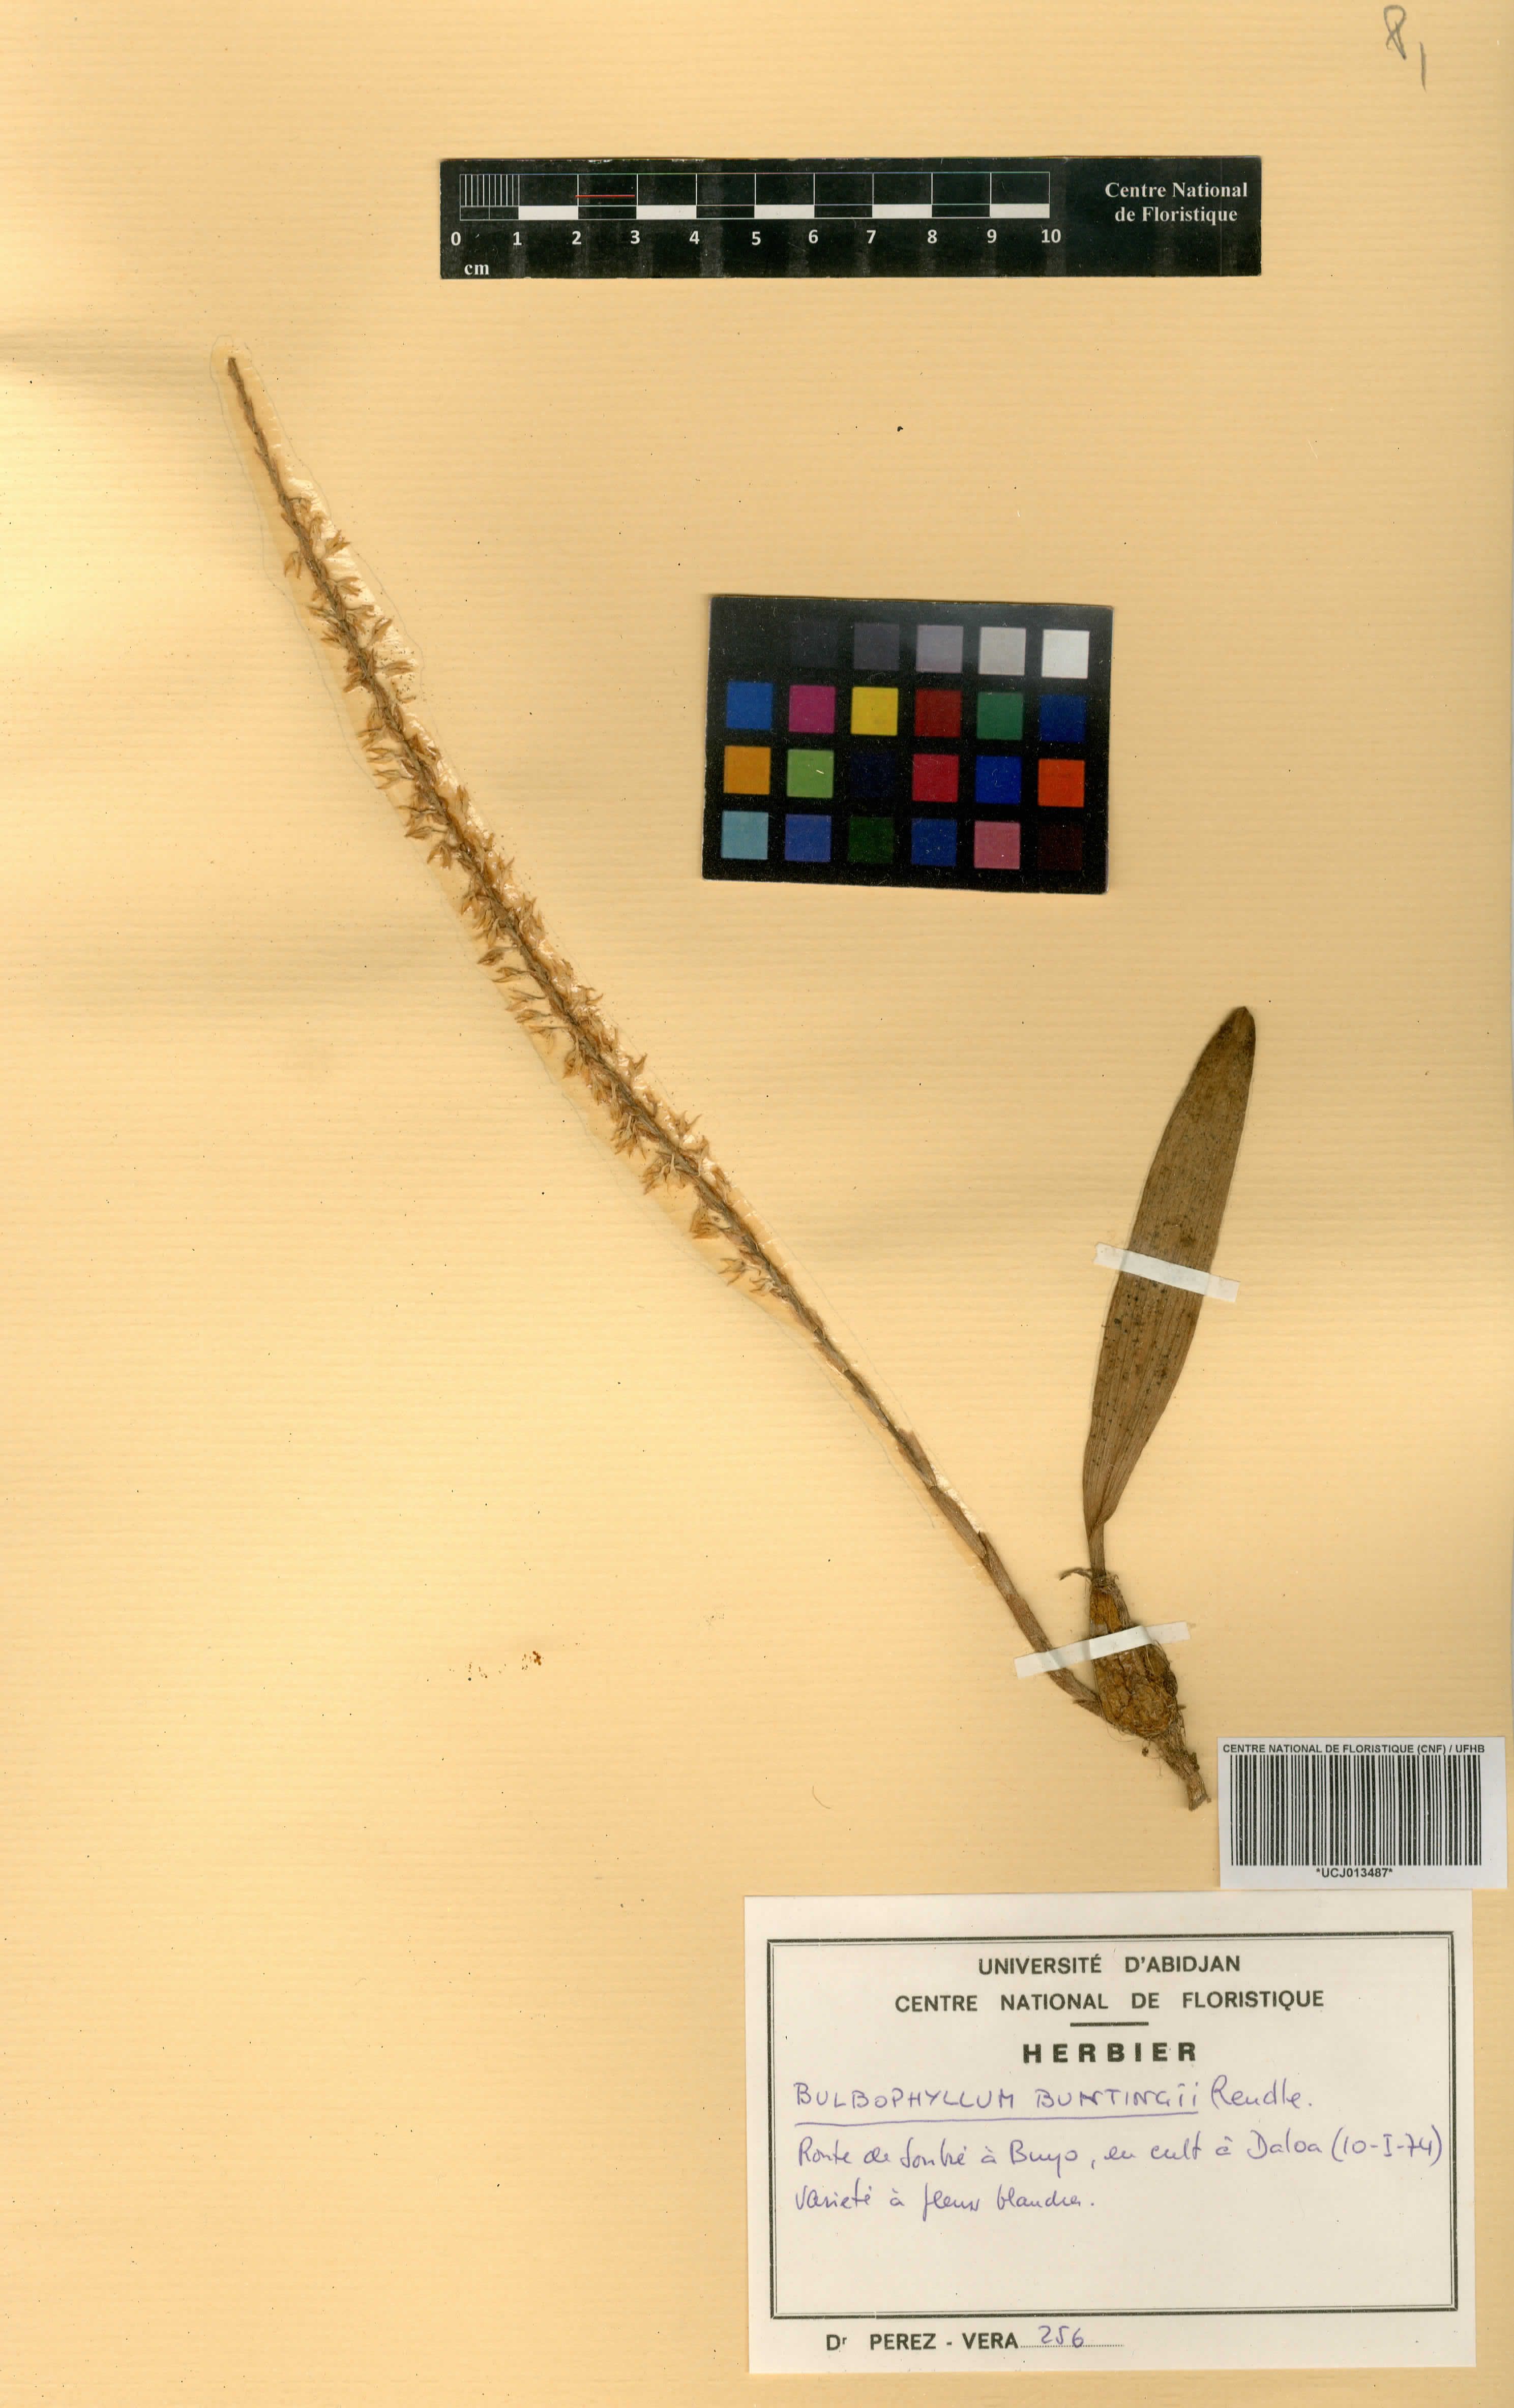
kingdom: Plantae
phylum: Tracheophyta
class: Liliopsida
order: Asparagales
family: Orchidaceae
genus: Bulbophyllum
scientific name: Bulbophyllum oxychilum
